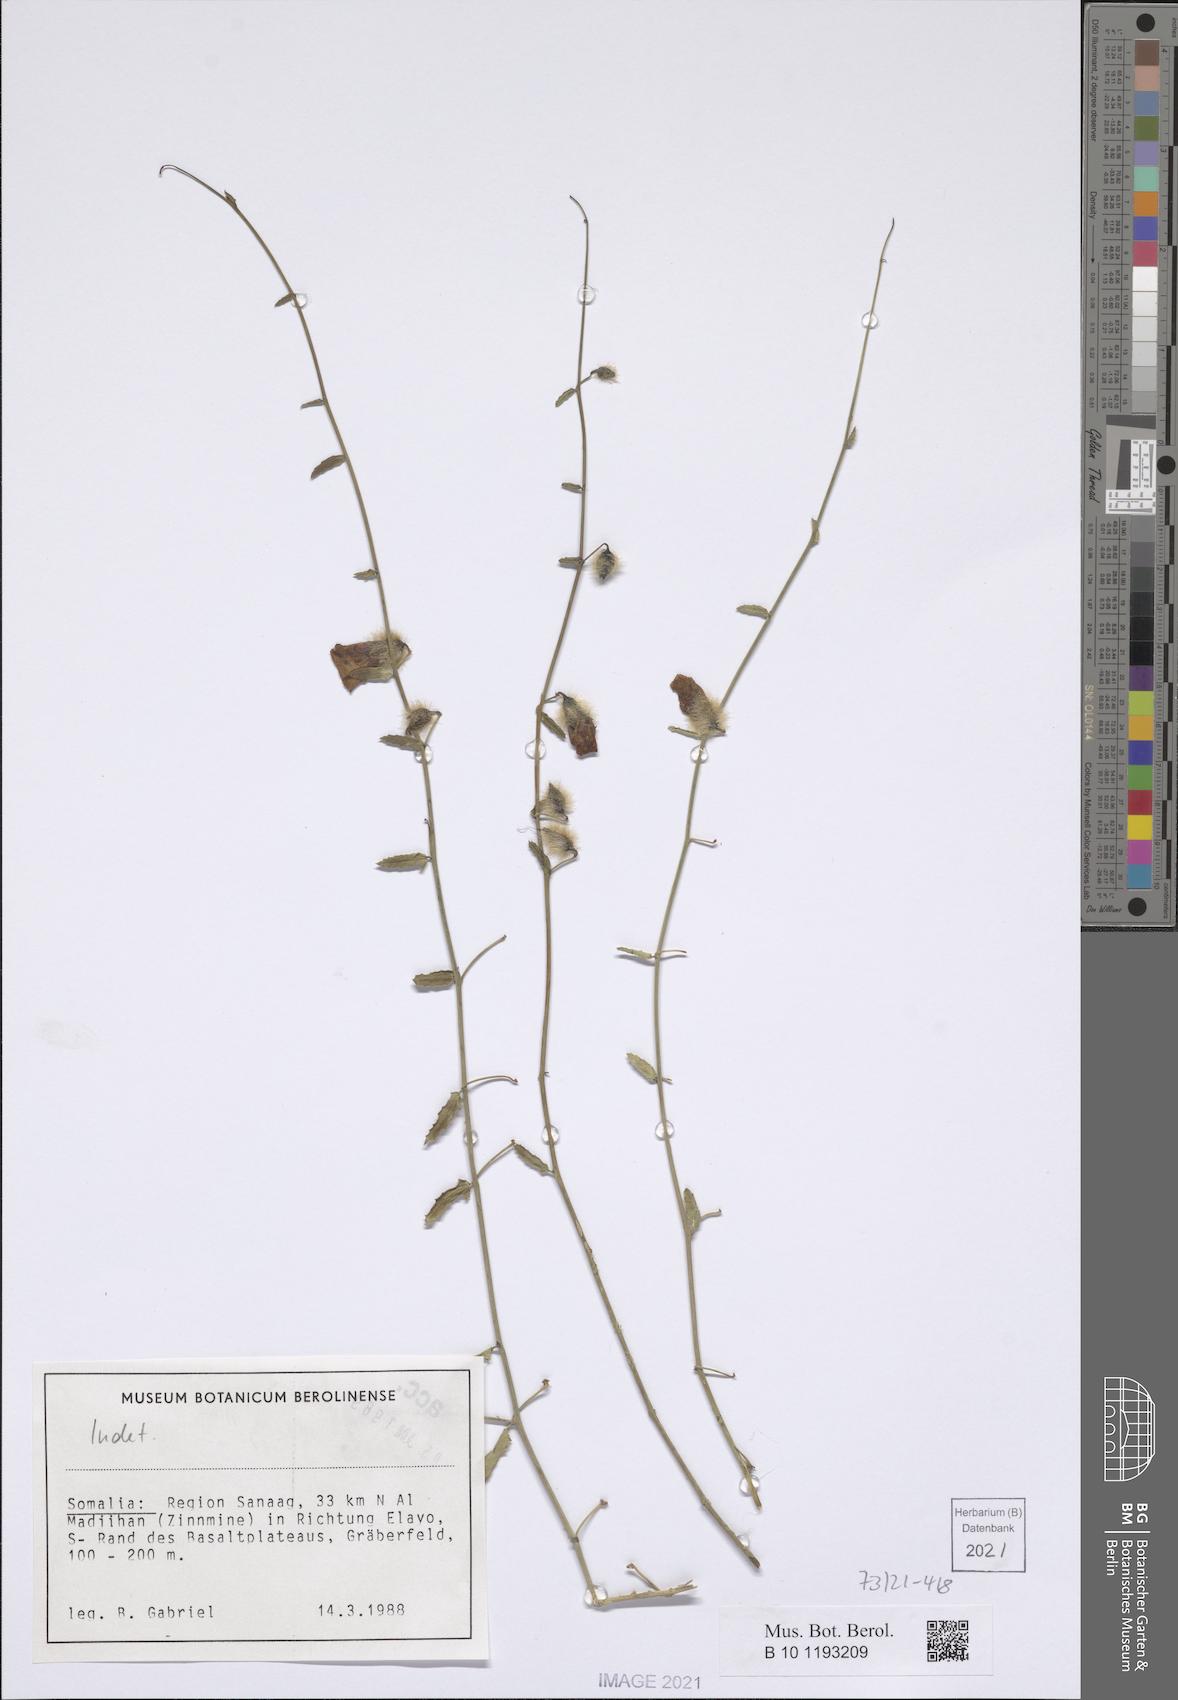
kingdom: Plantae
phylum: Tracheophyta
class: Magnoliopsida
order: Solanales
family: Convolvulaceae
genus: Distimake
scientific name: Distimake somalensis
